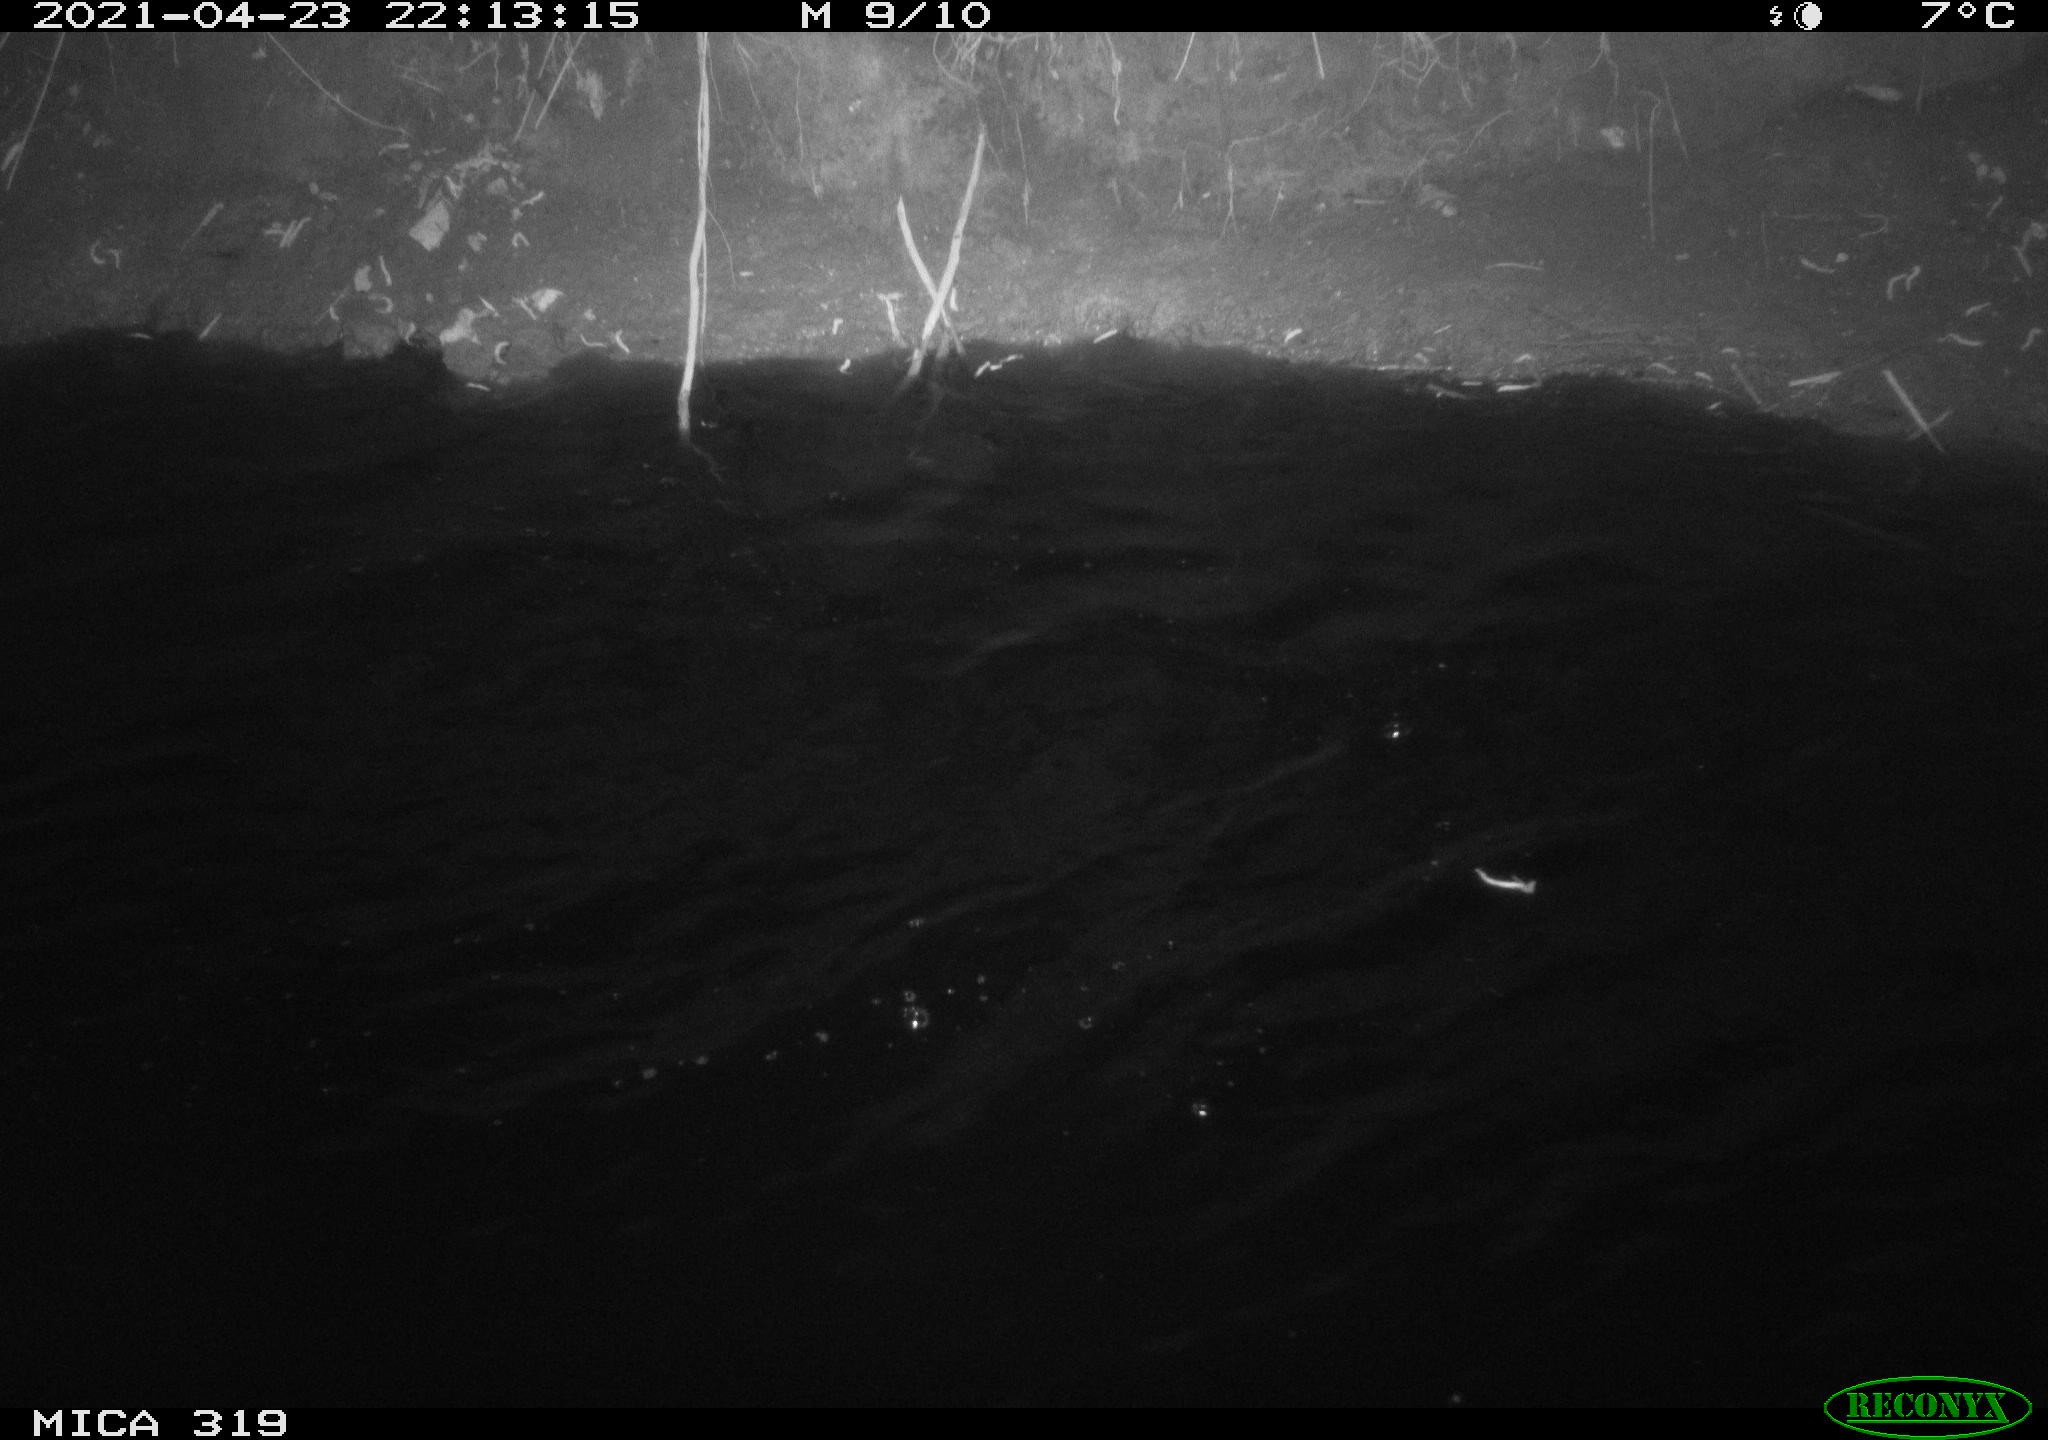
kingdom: Animalia
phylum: Chordata
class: Aves
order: Anseriformes
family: Anatidae
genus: Anas
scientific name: Anas platyrhynchos
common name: Mallard
